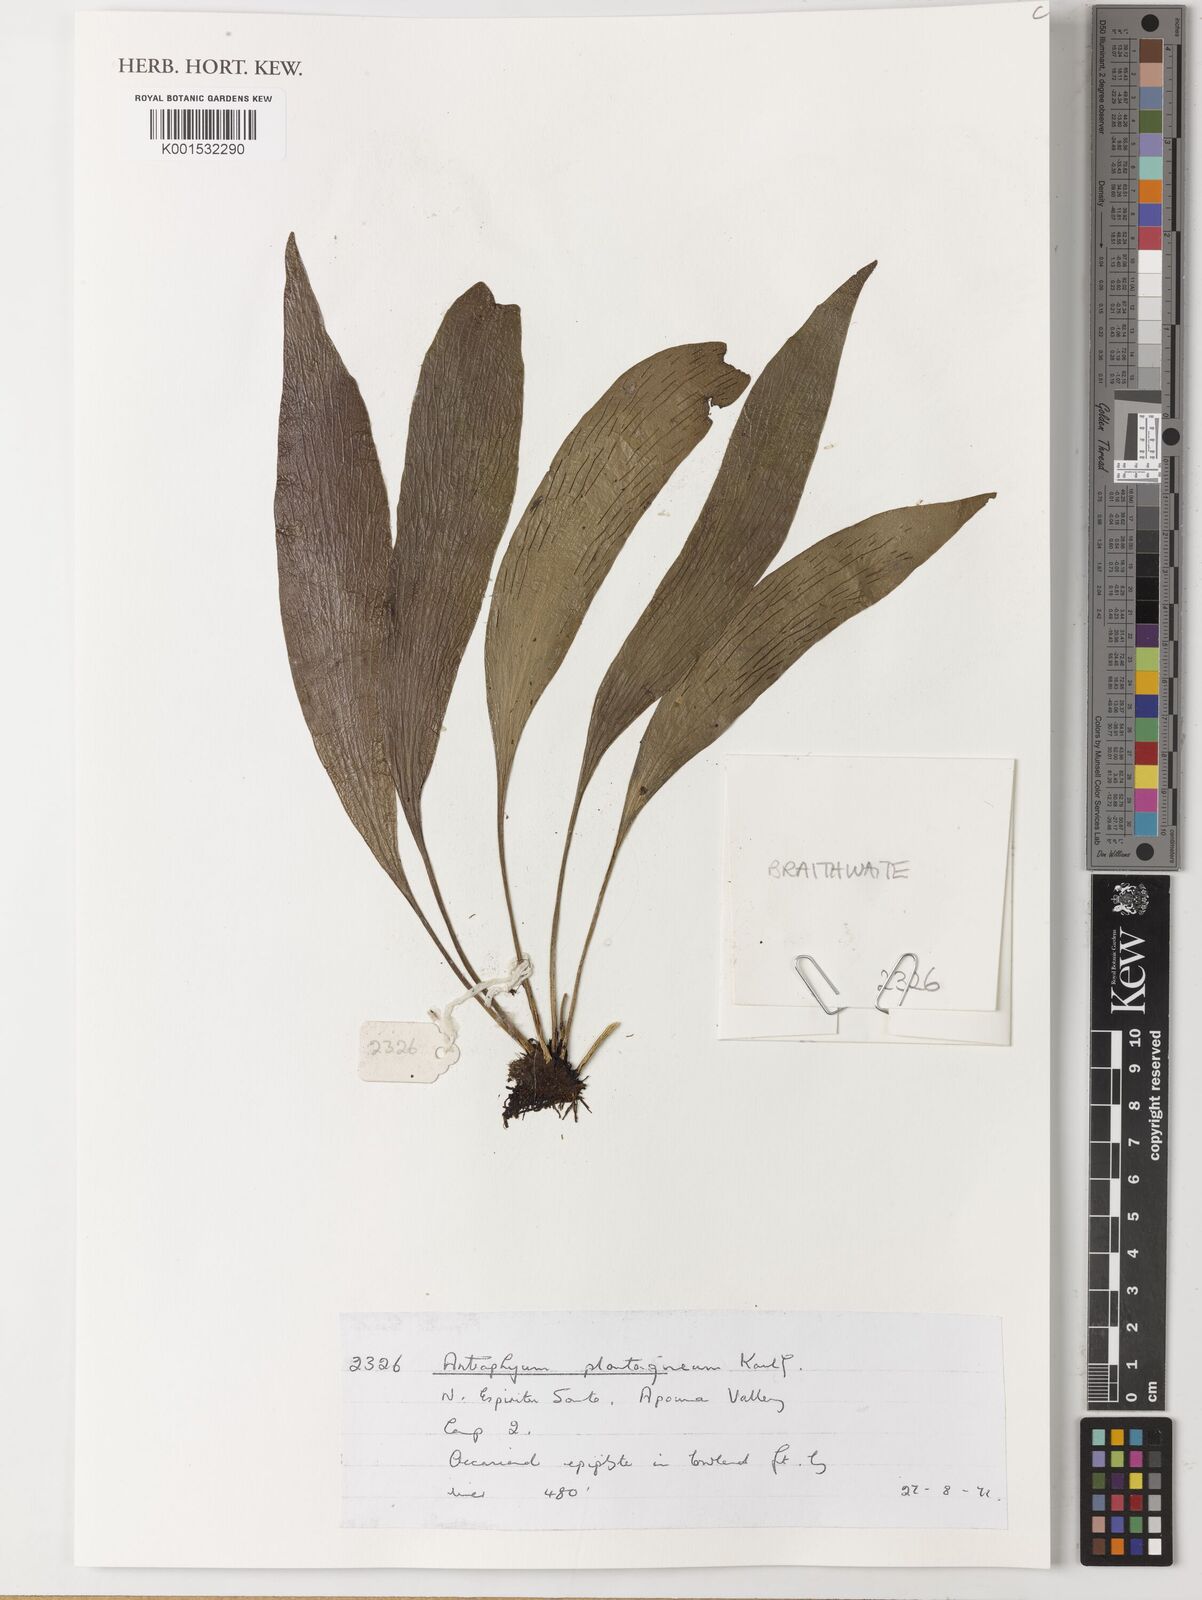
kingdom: Plantae
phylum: Tracheophyta
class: Polypodiopsida
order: Polypodiales
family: Pteridaceae
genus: Antrophyum
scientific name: Antrophyum plantagineum
